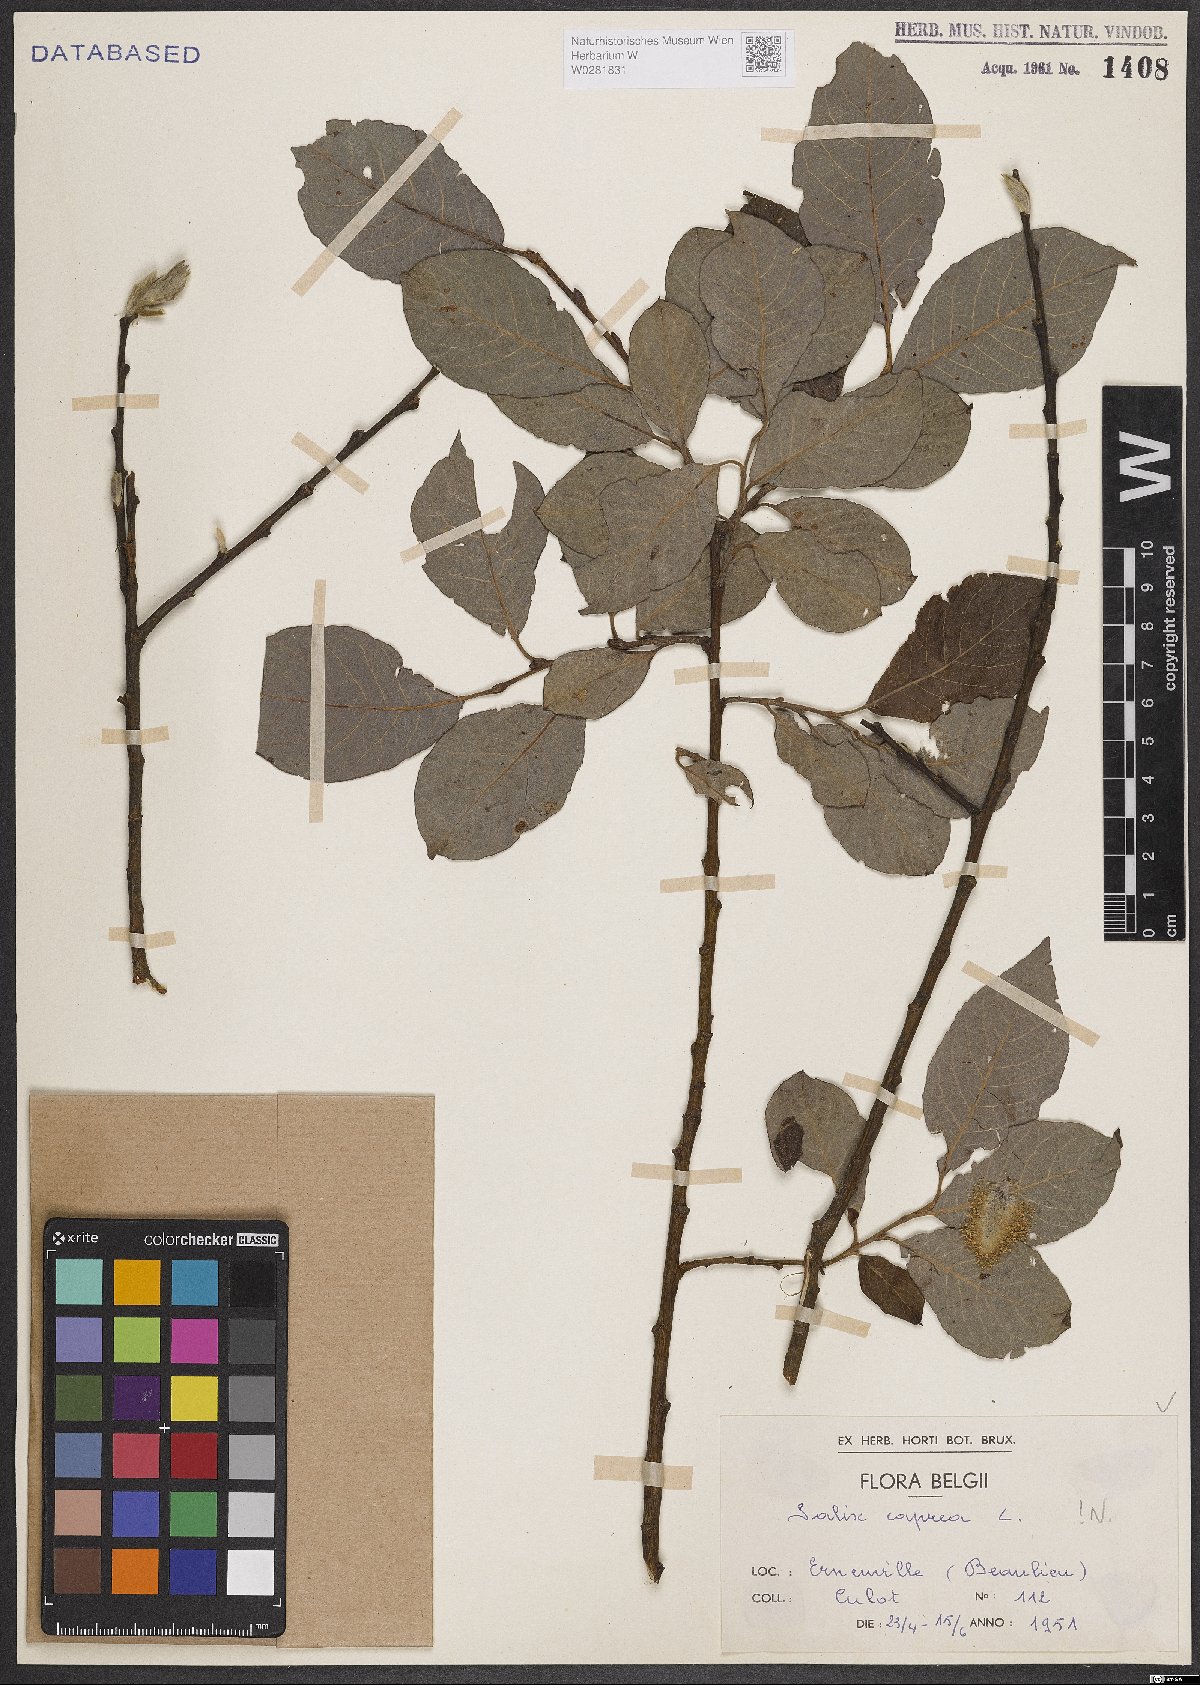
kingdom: Plantae
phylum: Tracheophyta
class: Magnoliopsida
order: Malpighiales
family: Salicaceae
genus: Salix
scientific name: Salix caprea
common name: Goat willow
